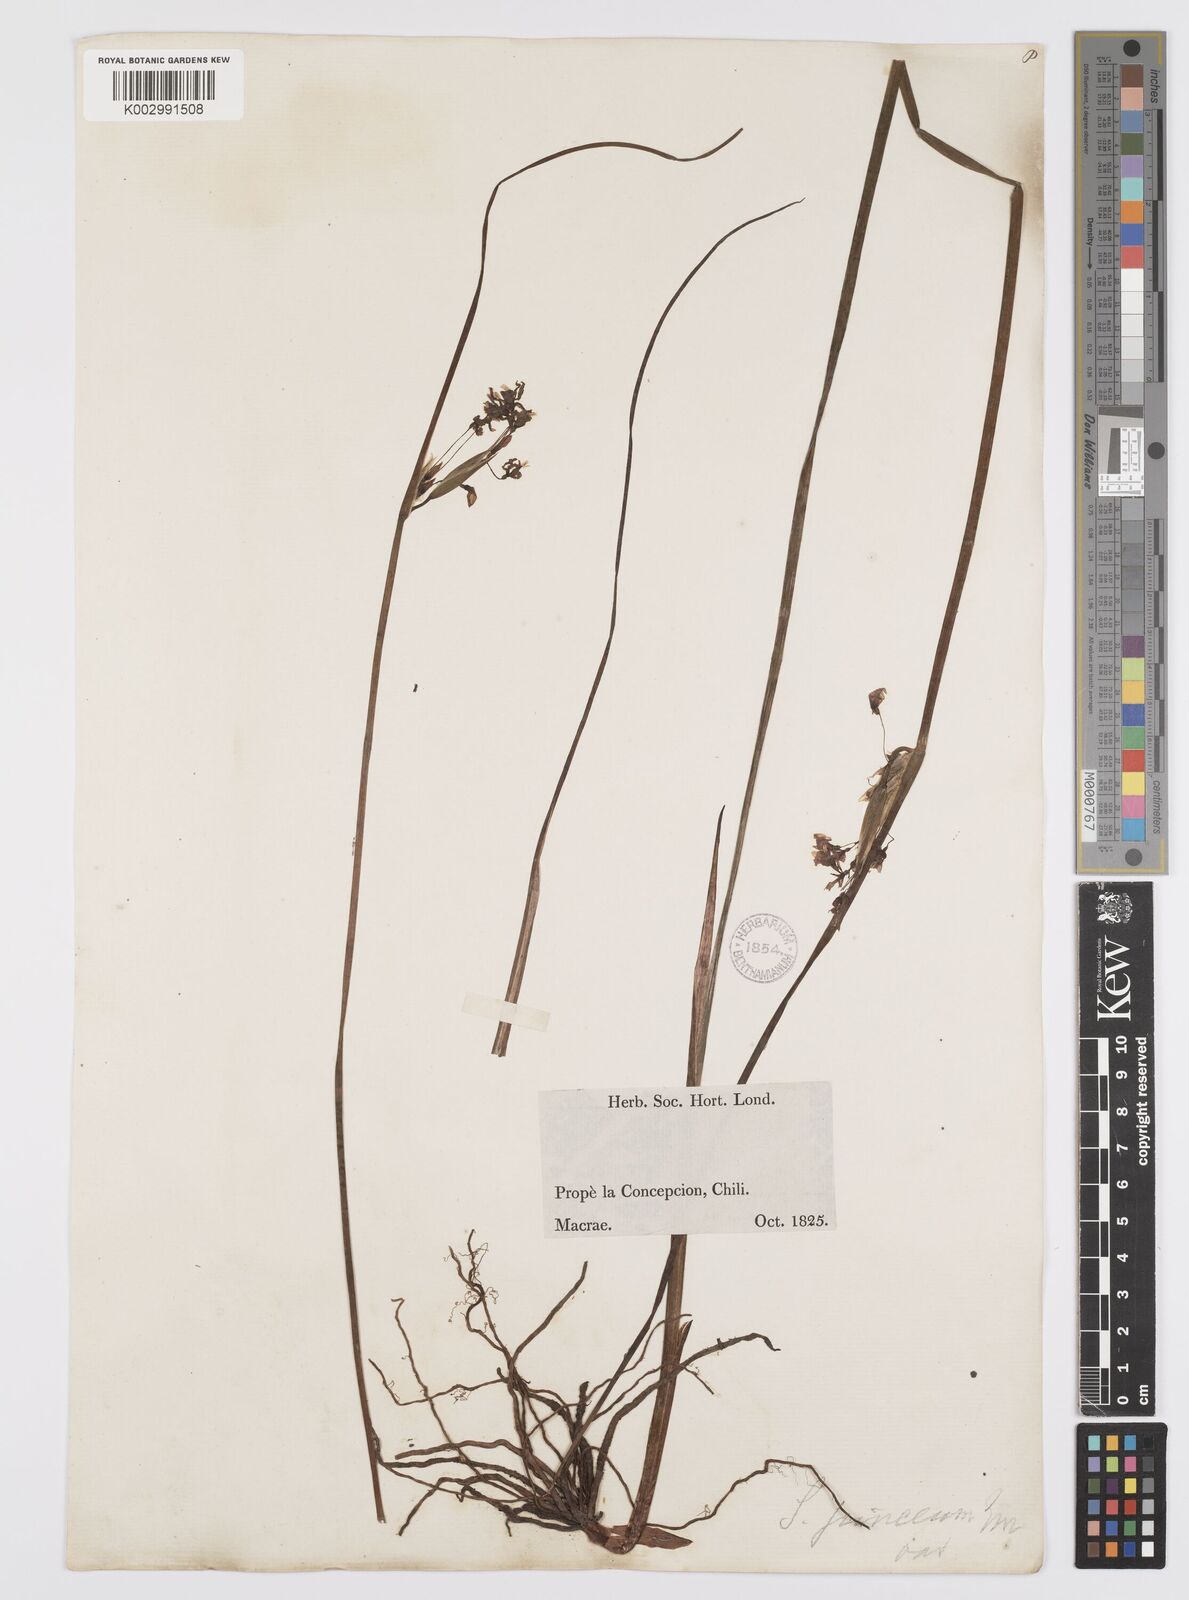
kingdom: Plantae
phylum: Tracheophyta
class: Liliopsida
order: Asparagales
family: Iridaceae
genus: Olsynium
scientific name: Olsynium junceum
